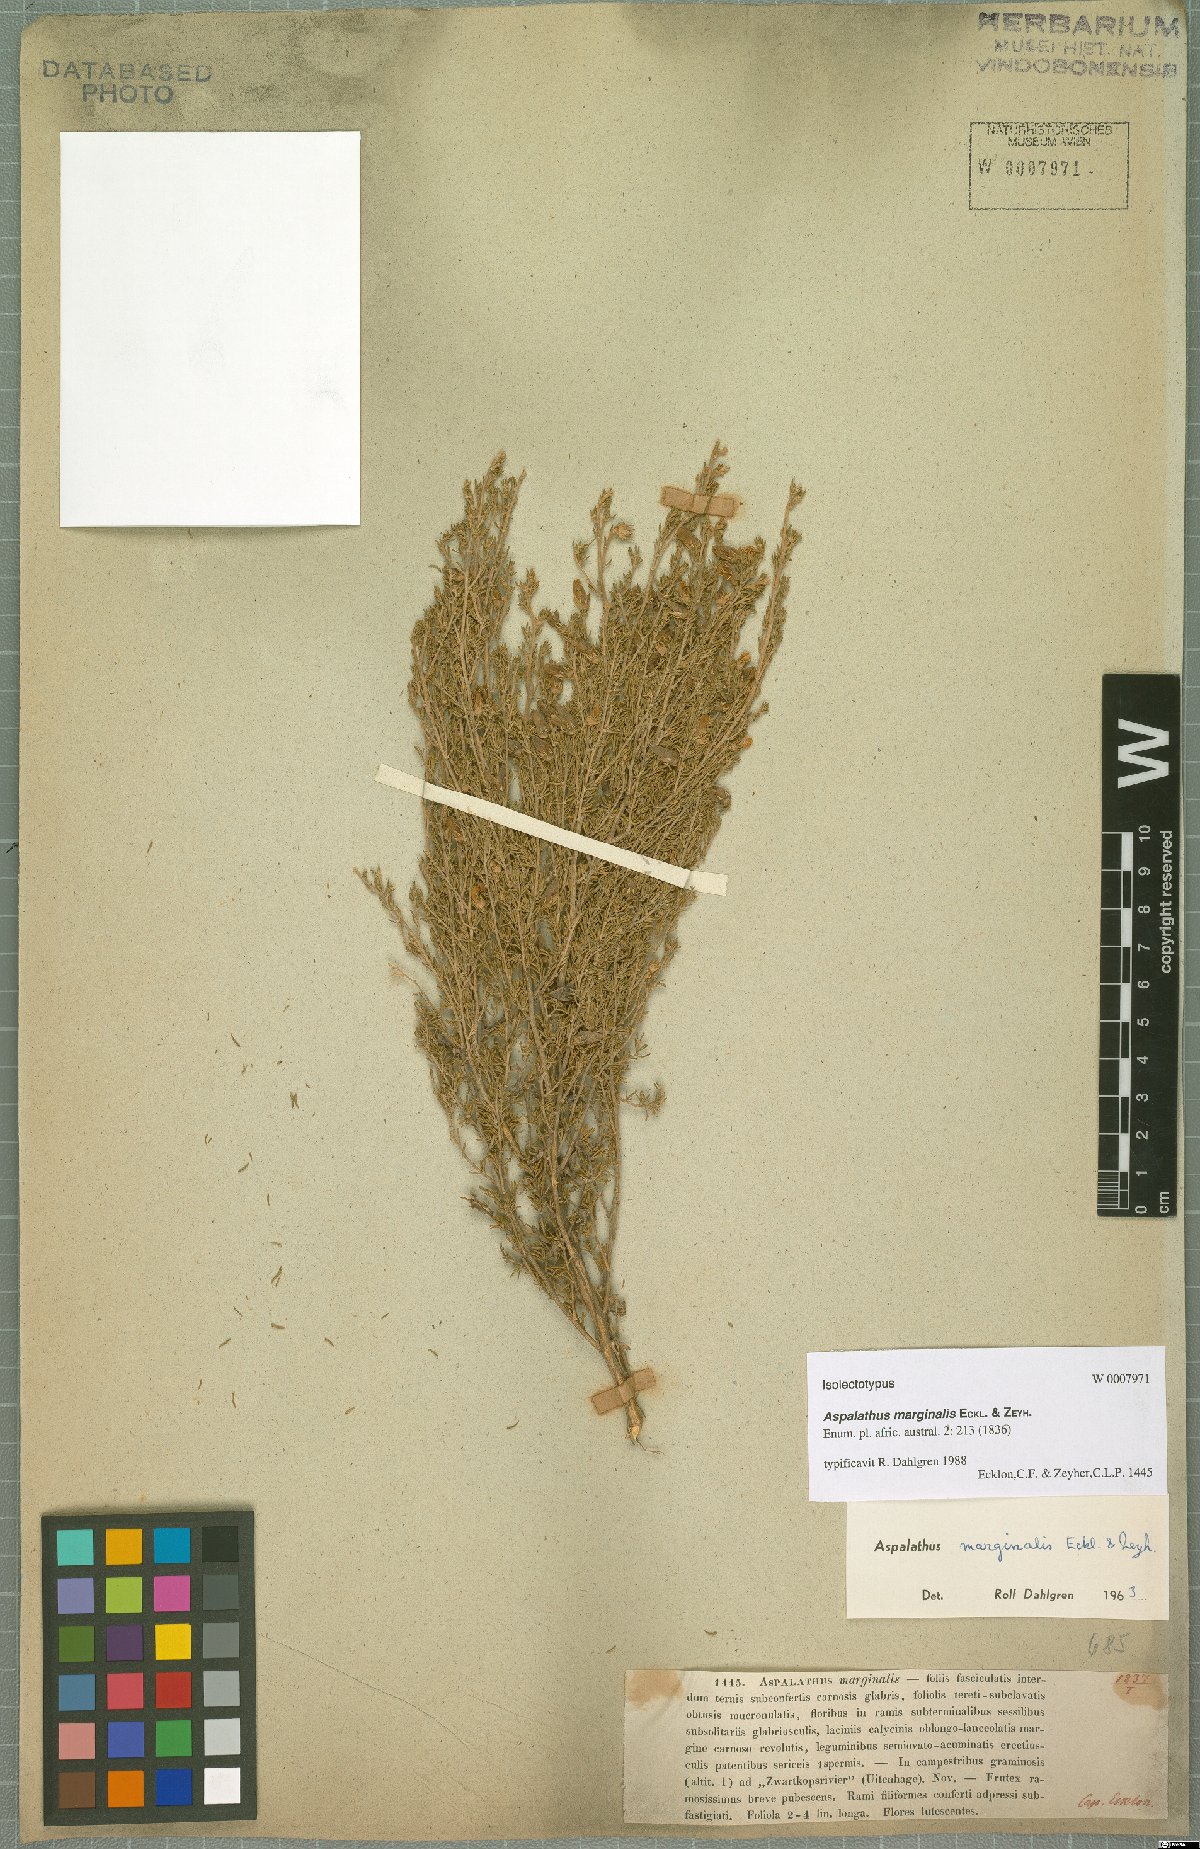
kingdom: Plantae
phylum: Tracheophyta
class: Magnoliopsida
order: Fabales
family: Fabaceae
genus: Aspalathus
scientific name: Aspalathus marginalis
